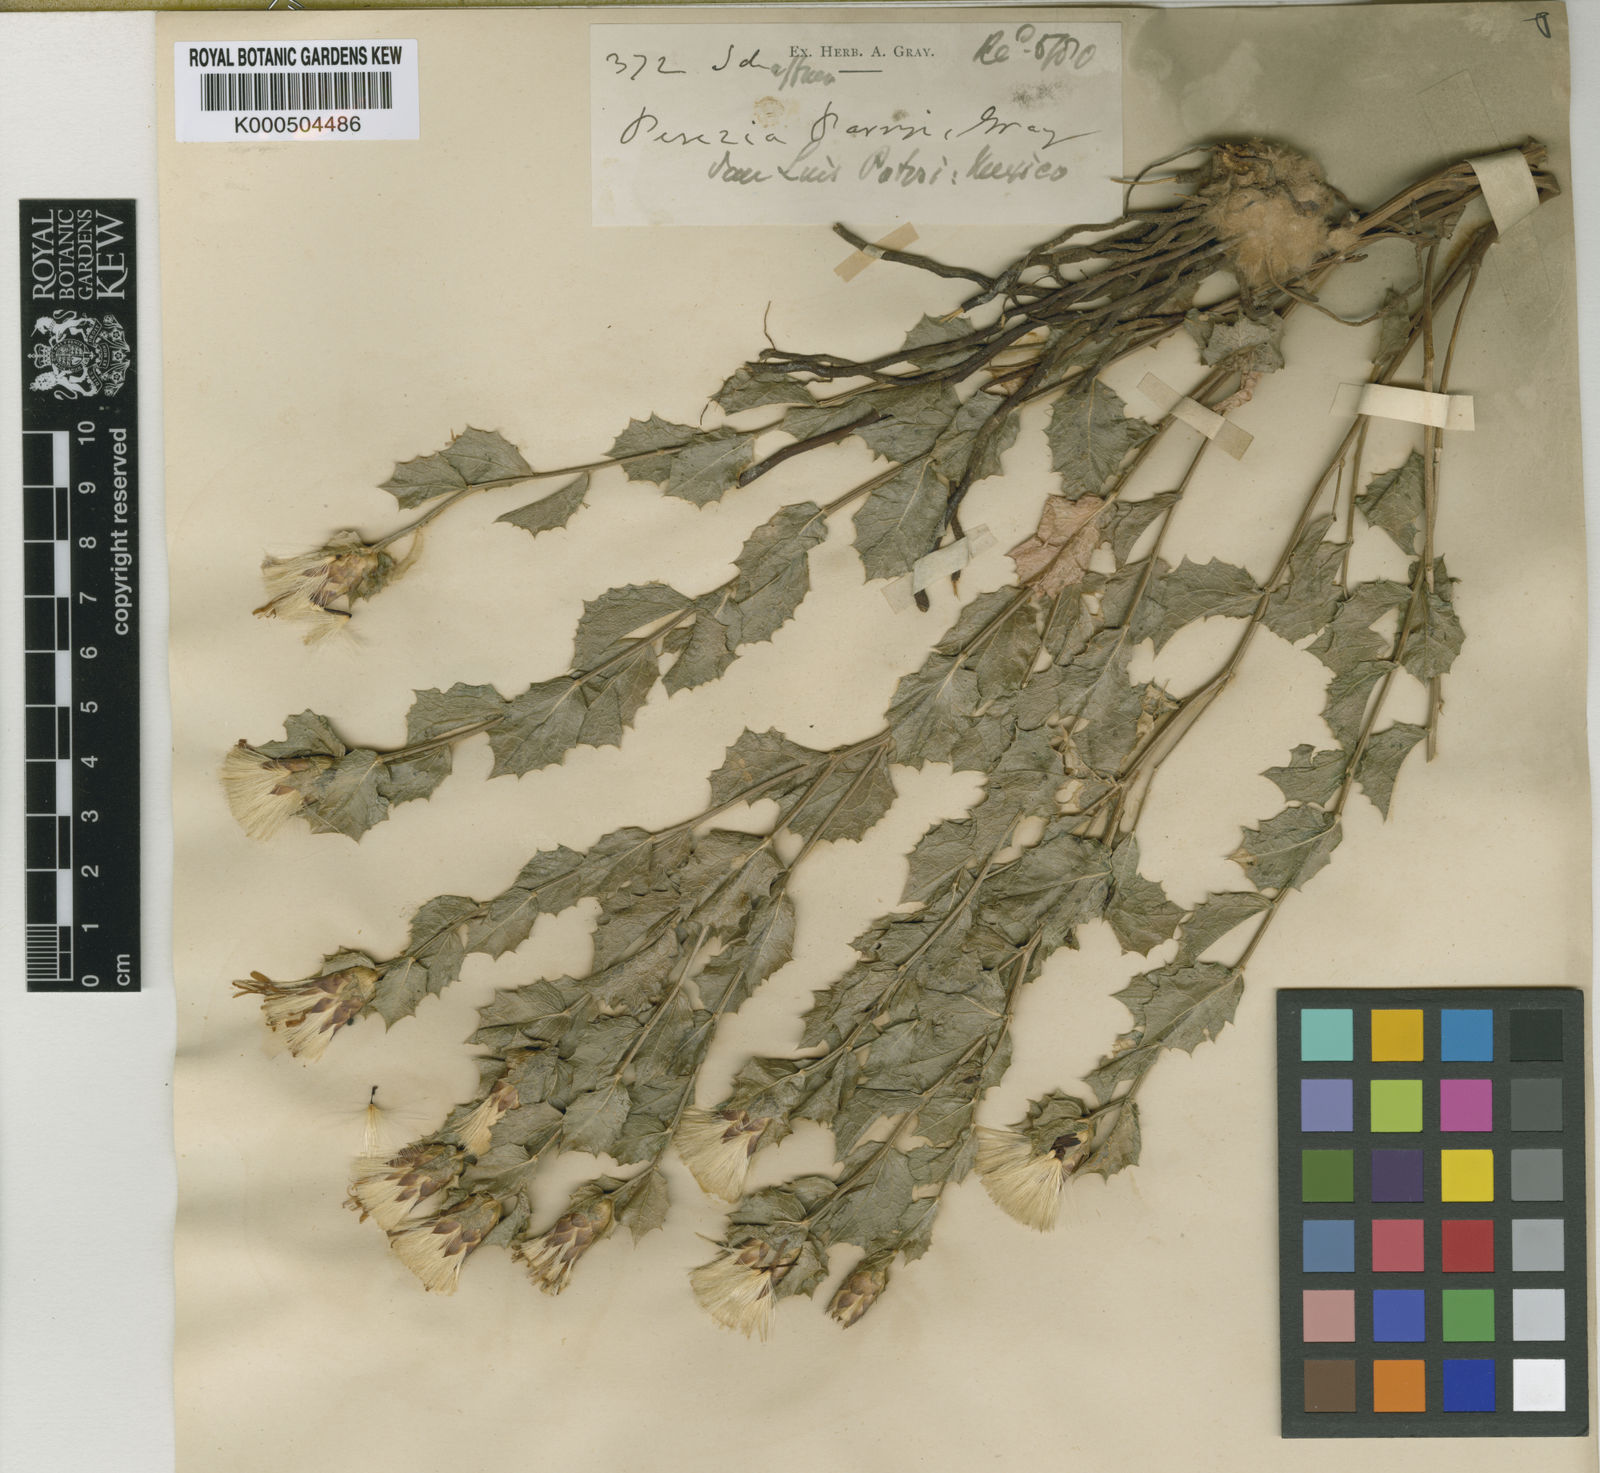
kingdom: Plantae
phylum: Tracheophyta
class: Magnoliopsida
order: Asterales
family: Asteraceae
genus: Acourtia
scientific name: Acourtia parryi
